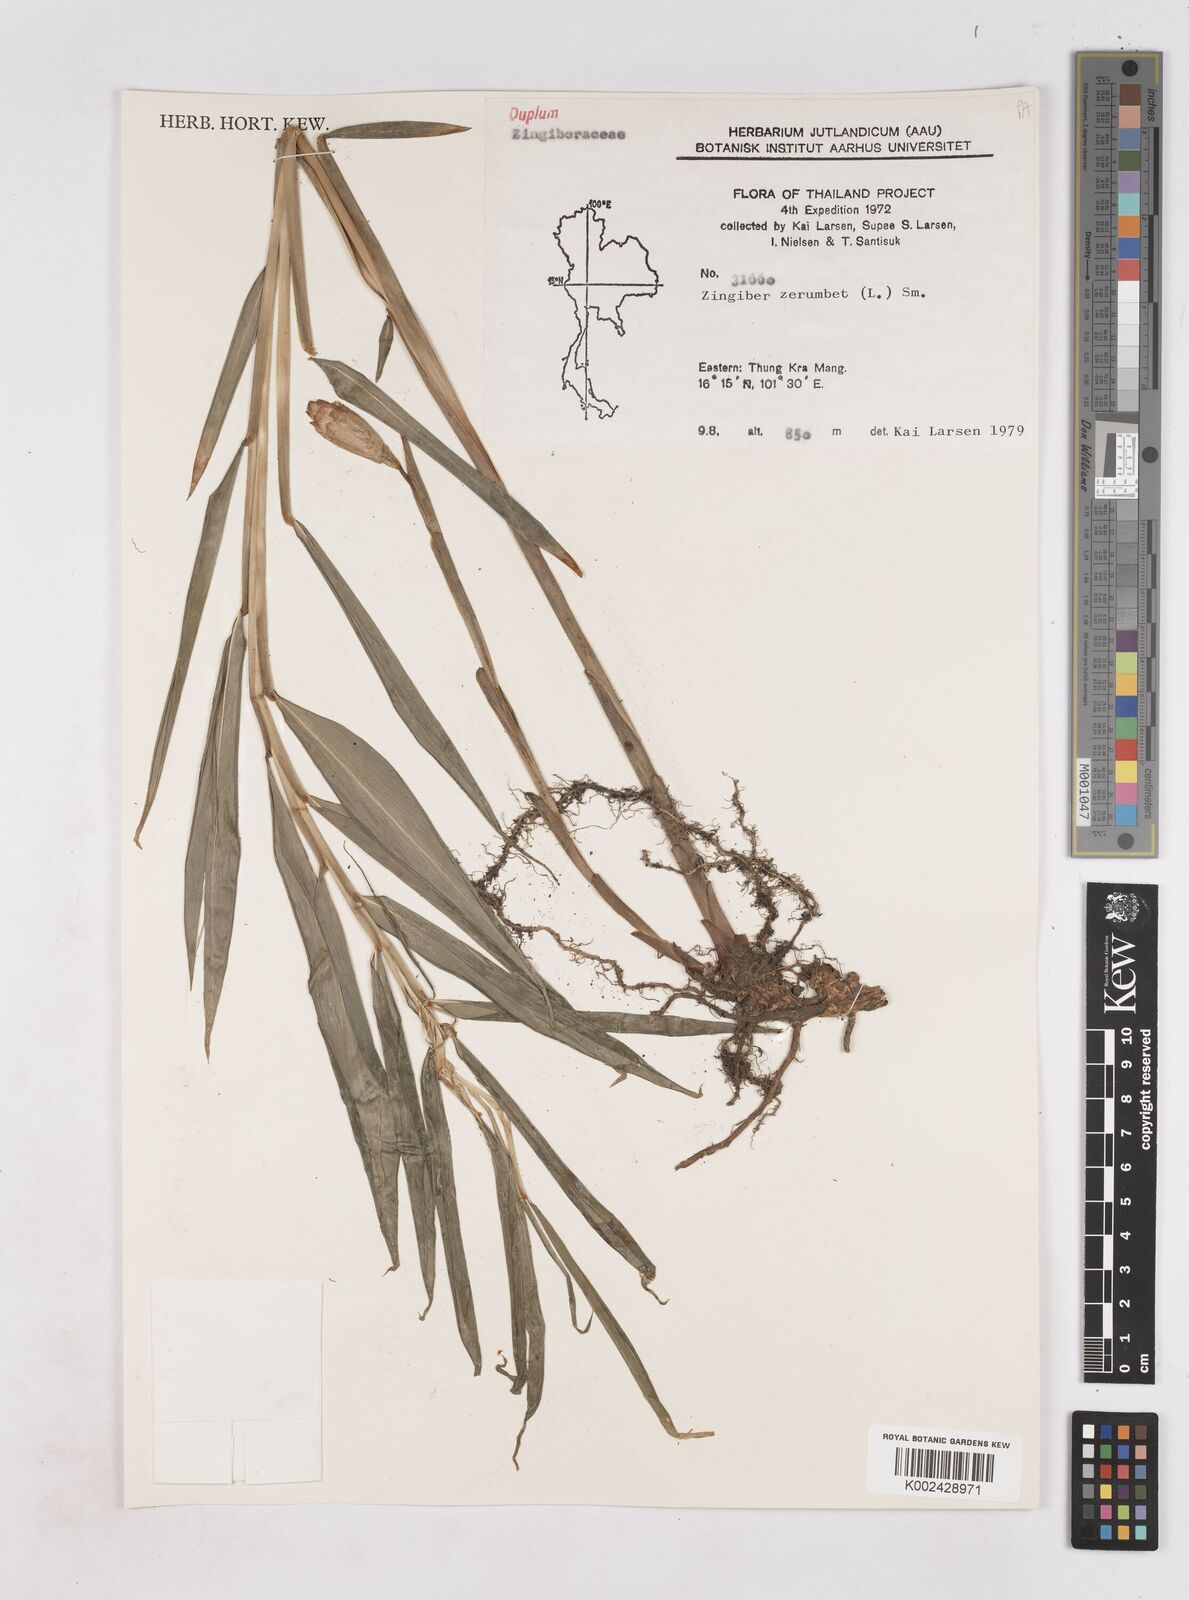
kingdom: Plantae
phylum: Tracheophyta
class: Liliopsida
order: Zingiberales
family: Zingiberaceae
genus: Zingiber
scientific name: Zingiber zerumbet
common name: Bitter ginger
